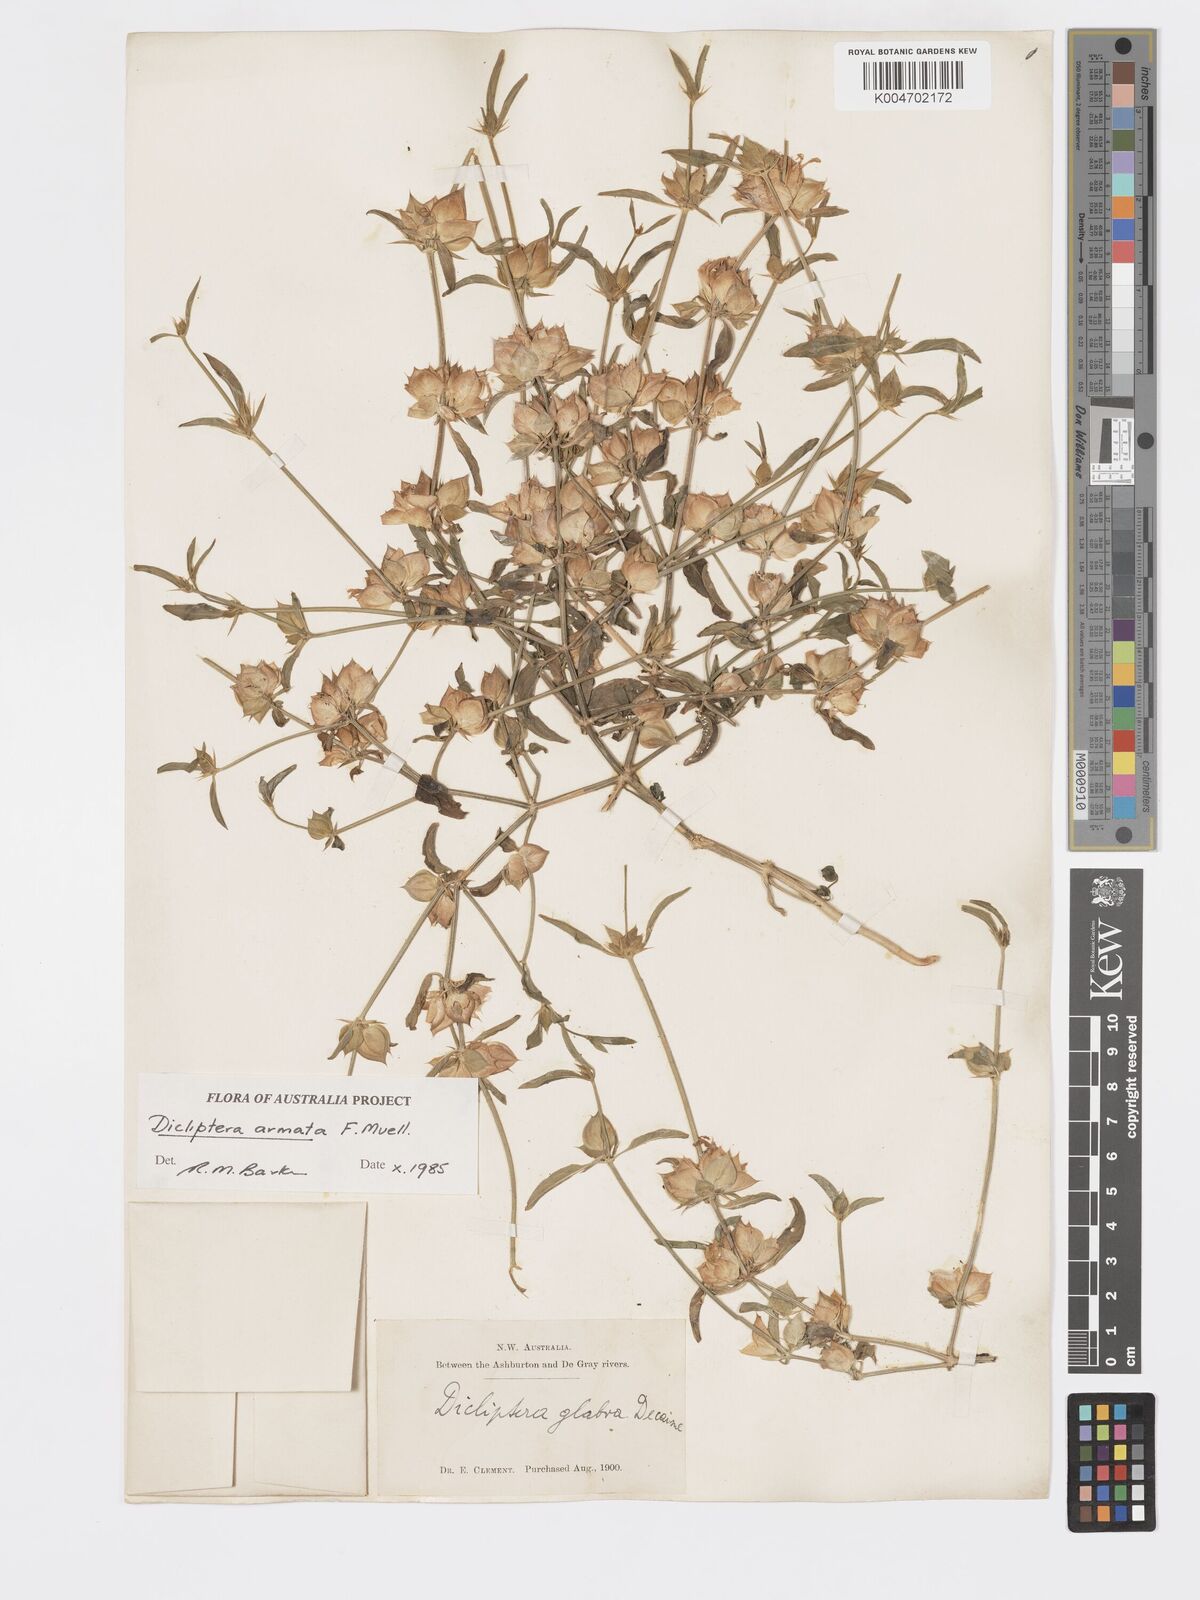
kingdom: Plantae
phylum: Tracheophyta
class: Magnoliopsida
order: Lamiales
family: Acanthaceae
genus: Dicliptera
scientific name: Dicliptera armata
